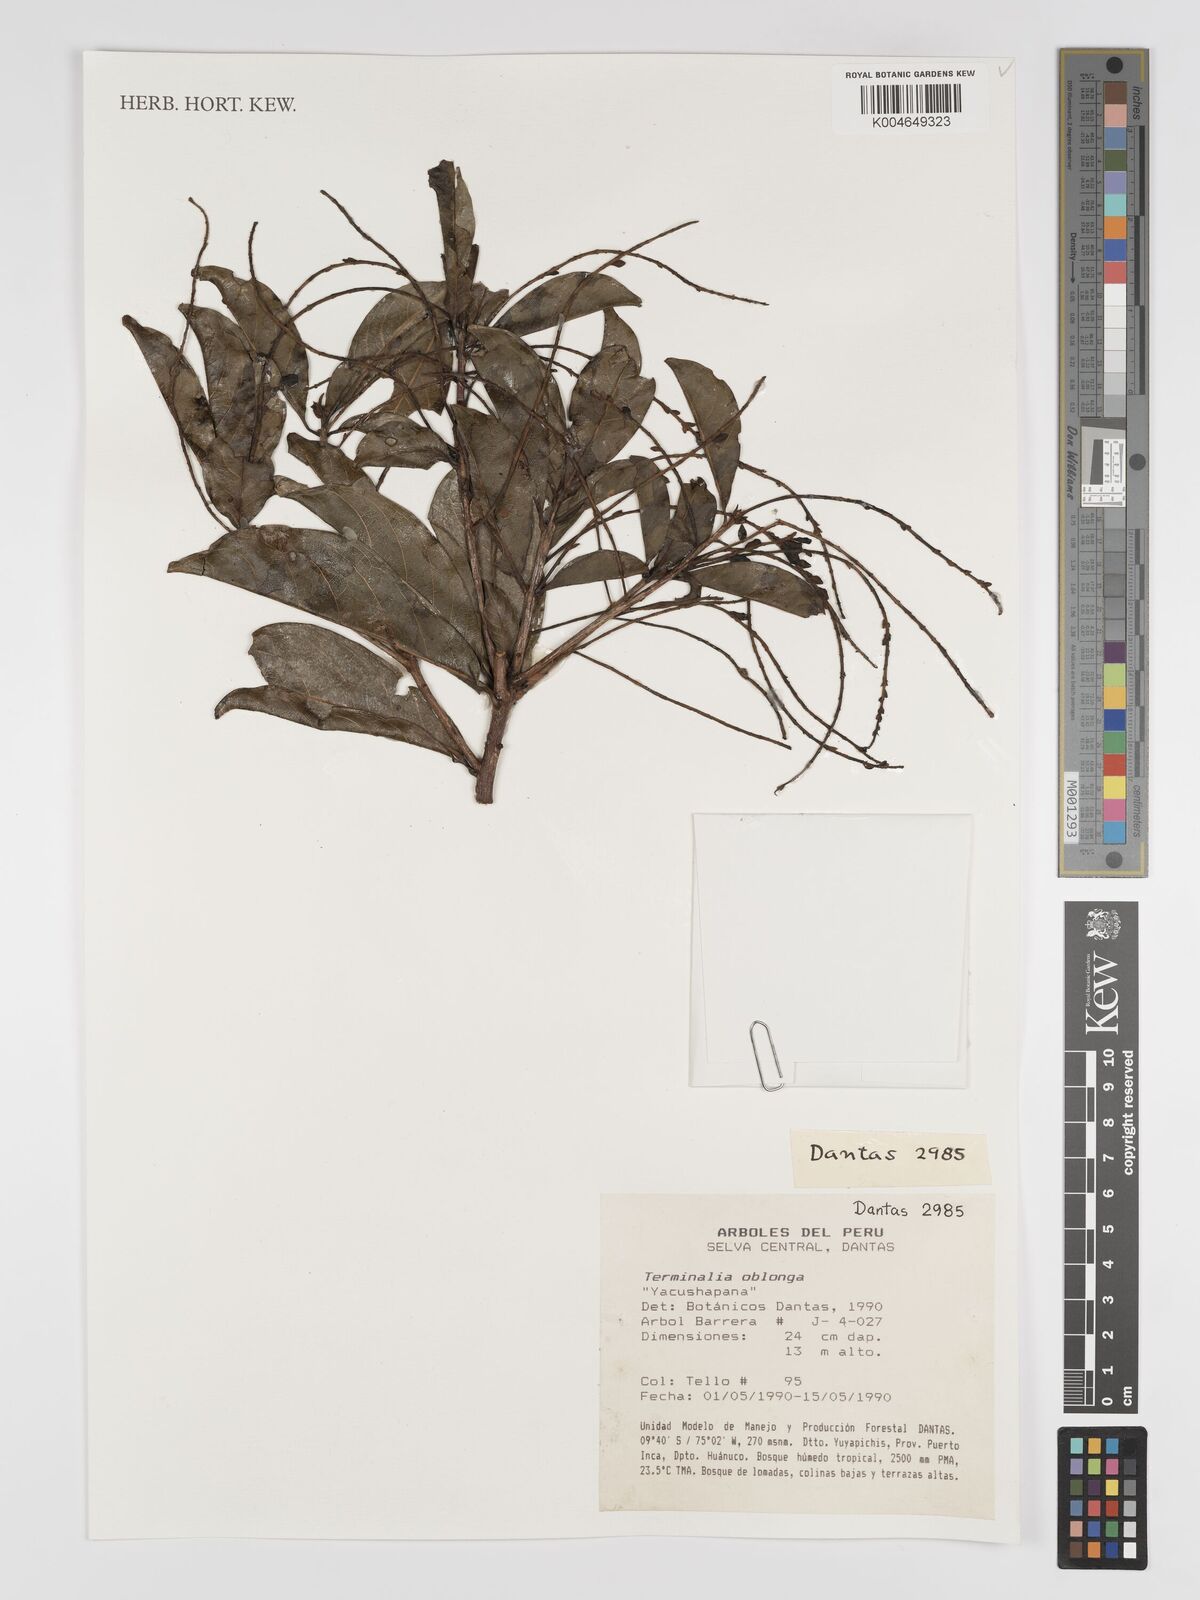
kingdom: Plantae
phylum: Tracheophyta
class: Magnoliopsida
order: Myrtales
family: Combretaceae
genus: Terminalia
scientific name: Terminalia oblonga
